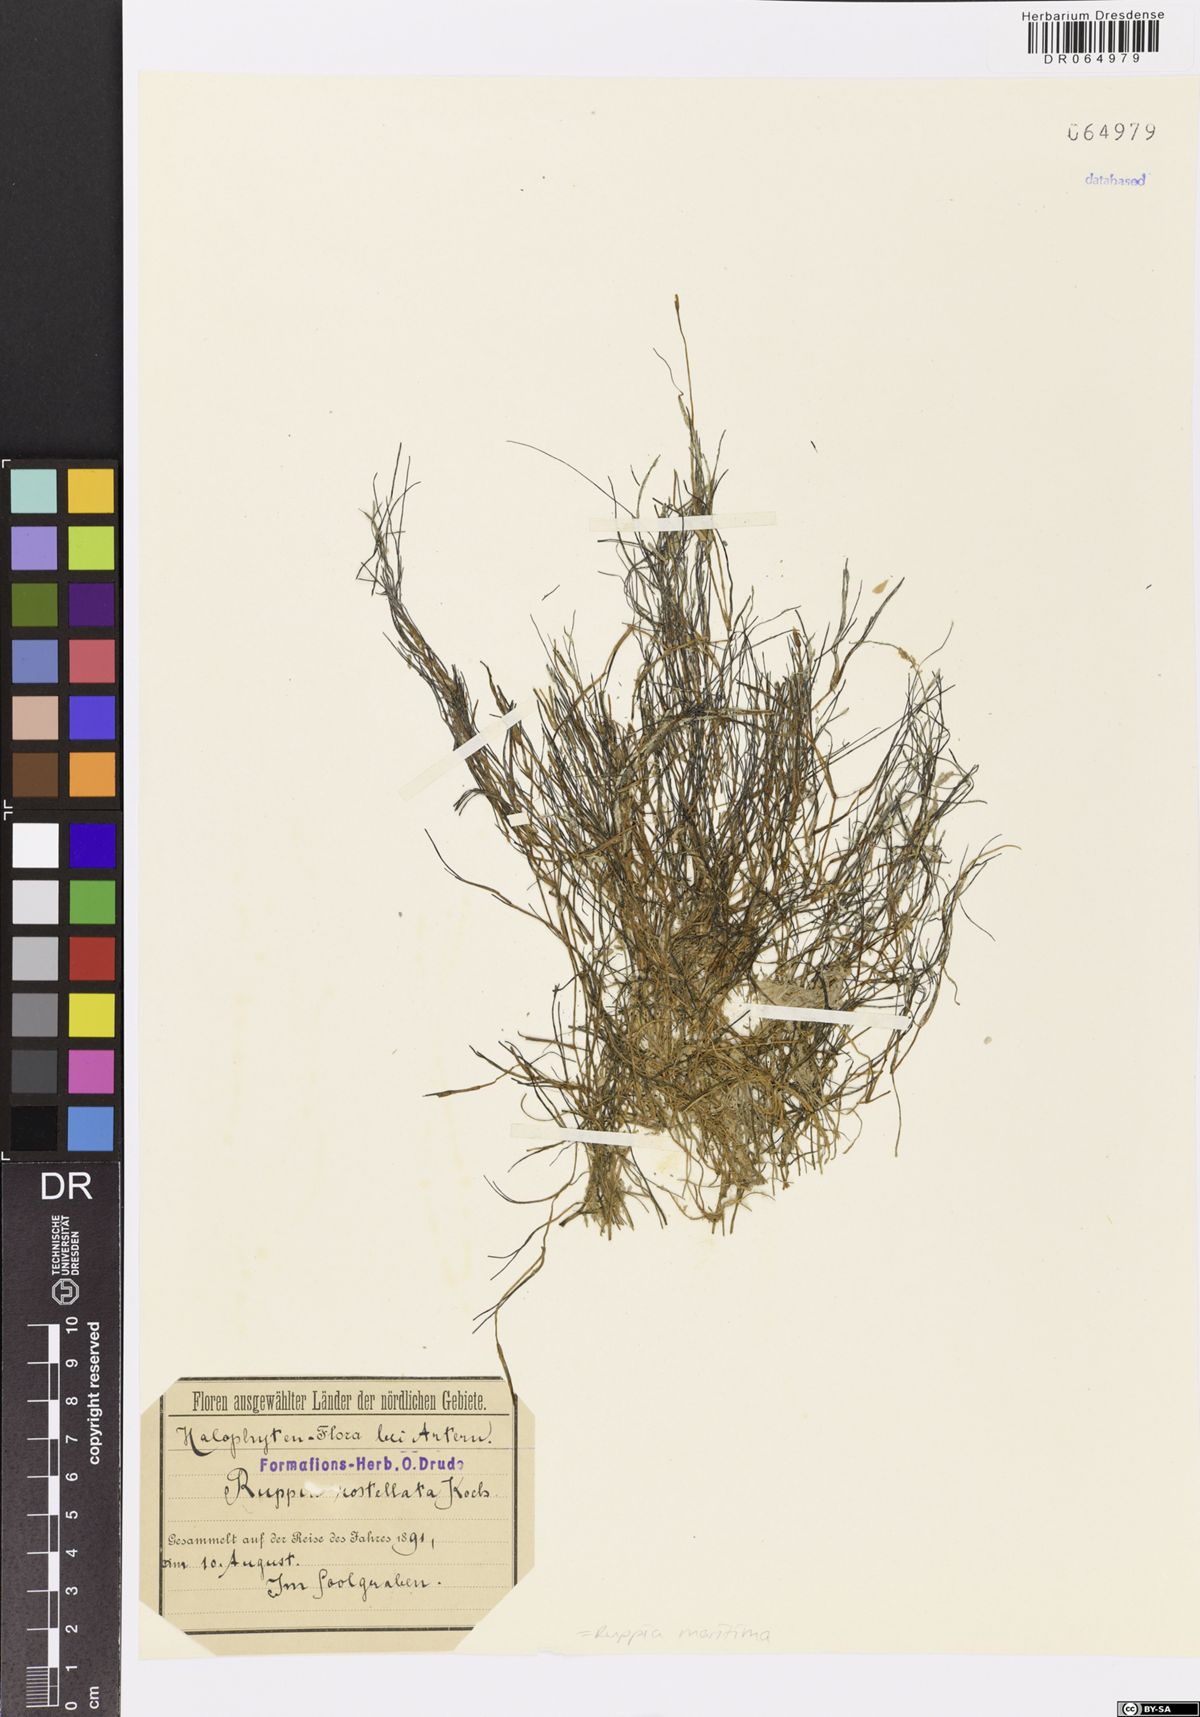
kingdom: Plantae
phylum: Tracheophyta
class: Liliopsida
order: Alismatales
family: Ruppiaceae
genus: Ruppia
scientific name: Ruppia maritima
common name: Beaked tasselweed
